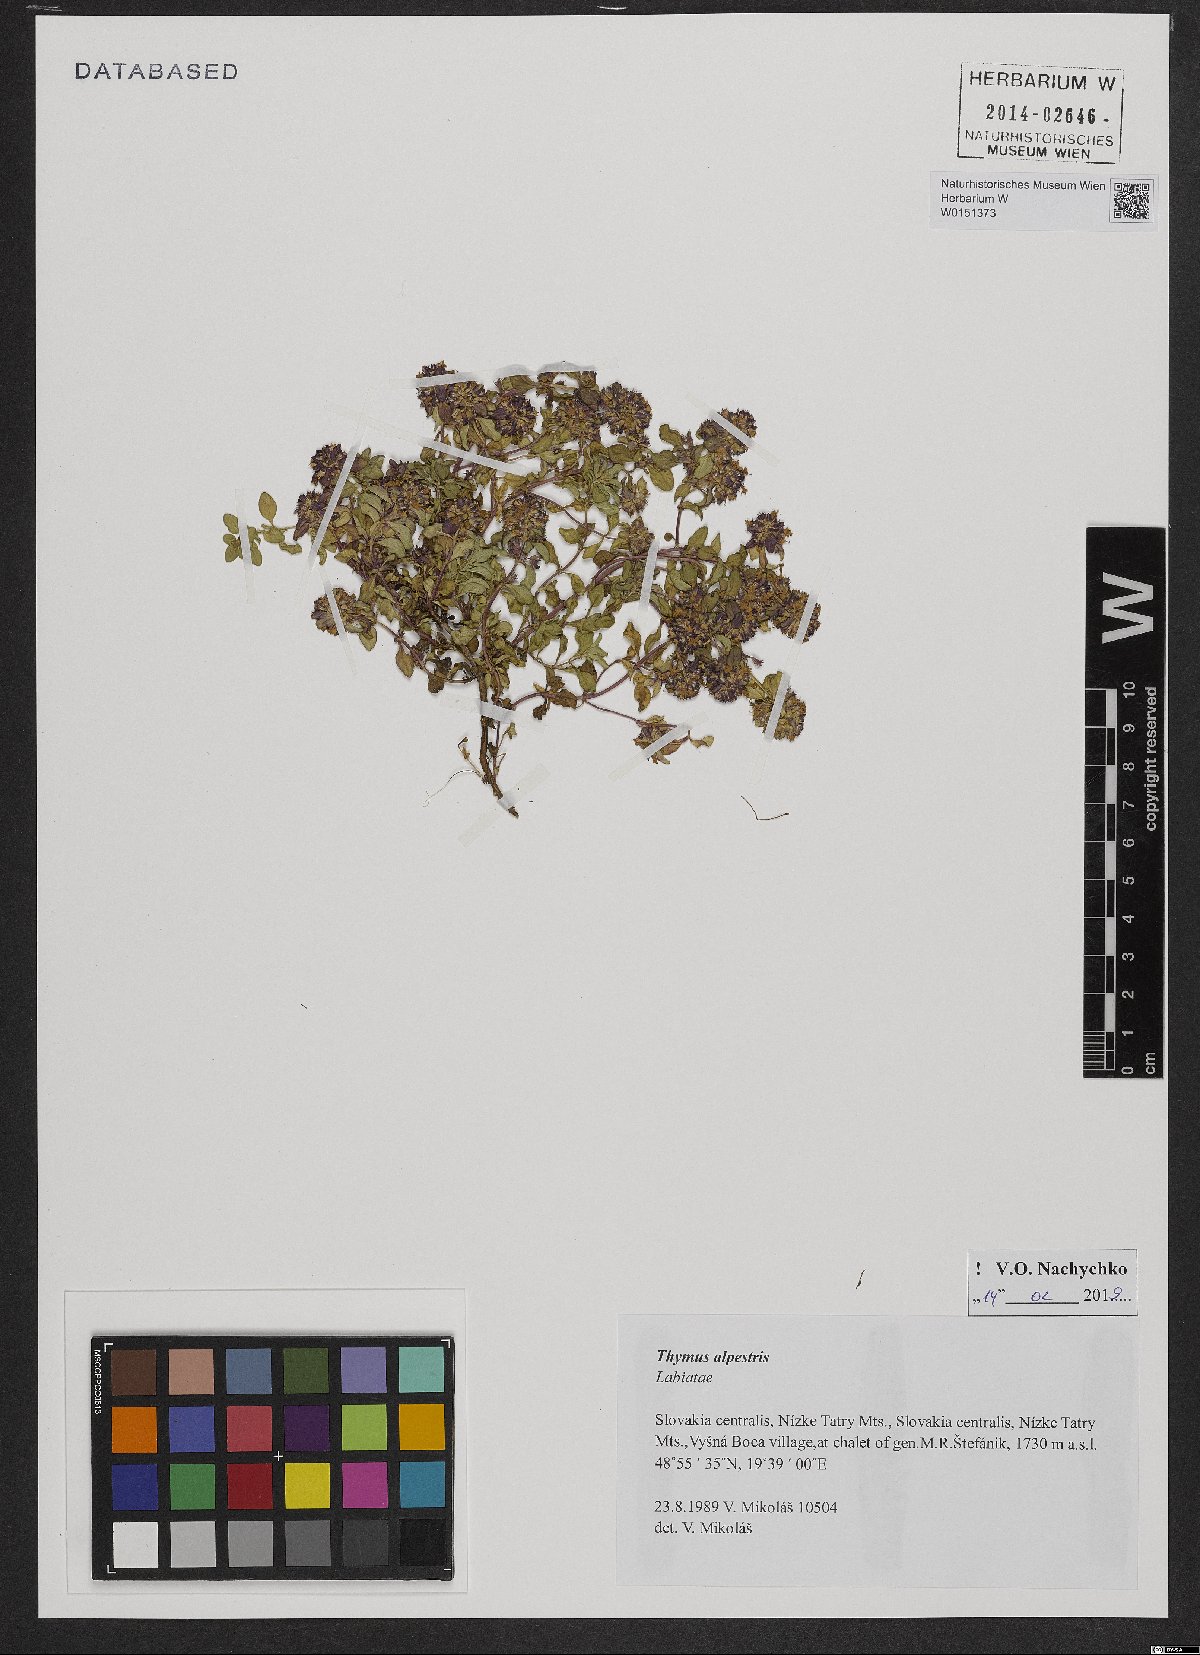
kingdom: Plantae
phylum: Tracheophyta
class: Magnoliopsida
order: Lamiales
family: Lamiaceae
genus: Thymus
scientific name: Thymus alpestris
